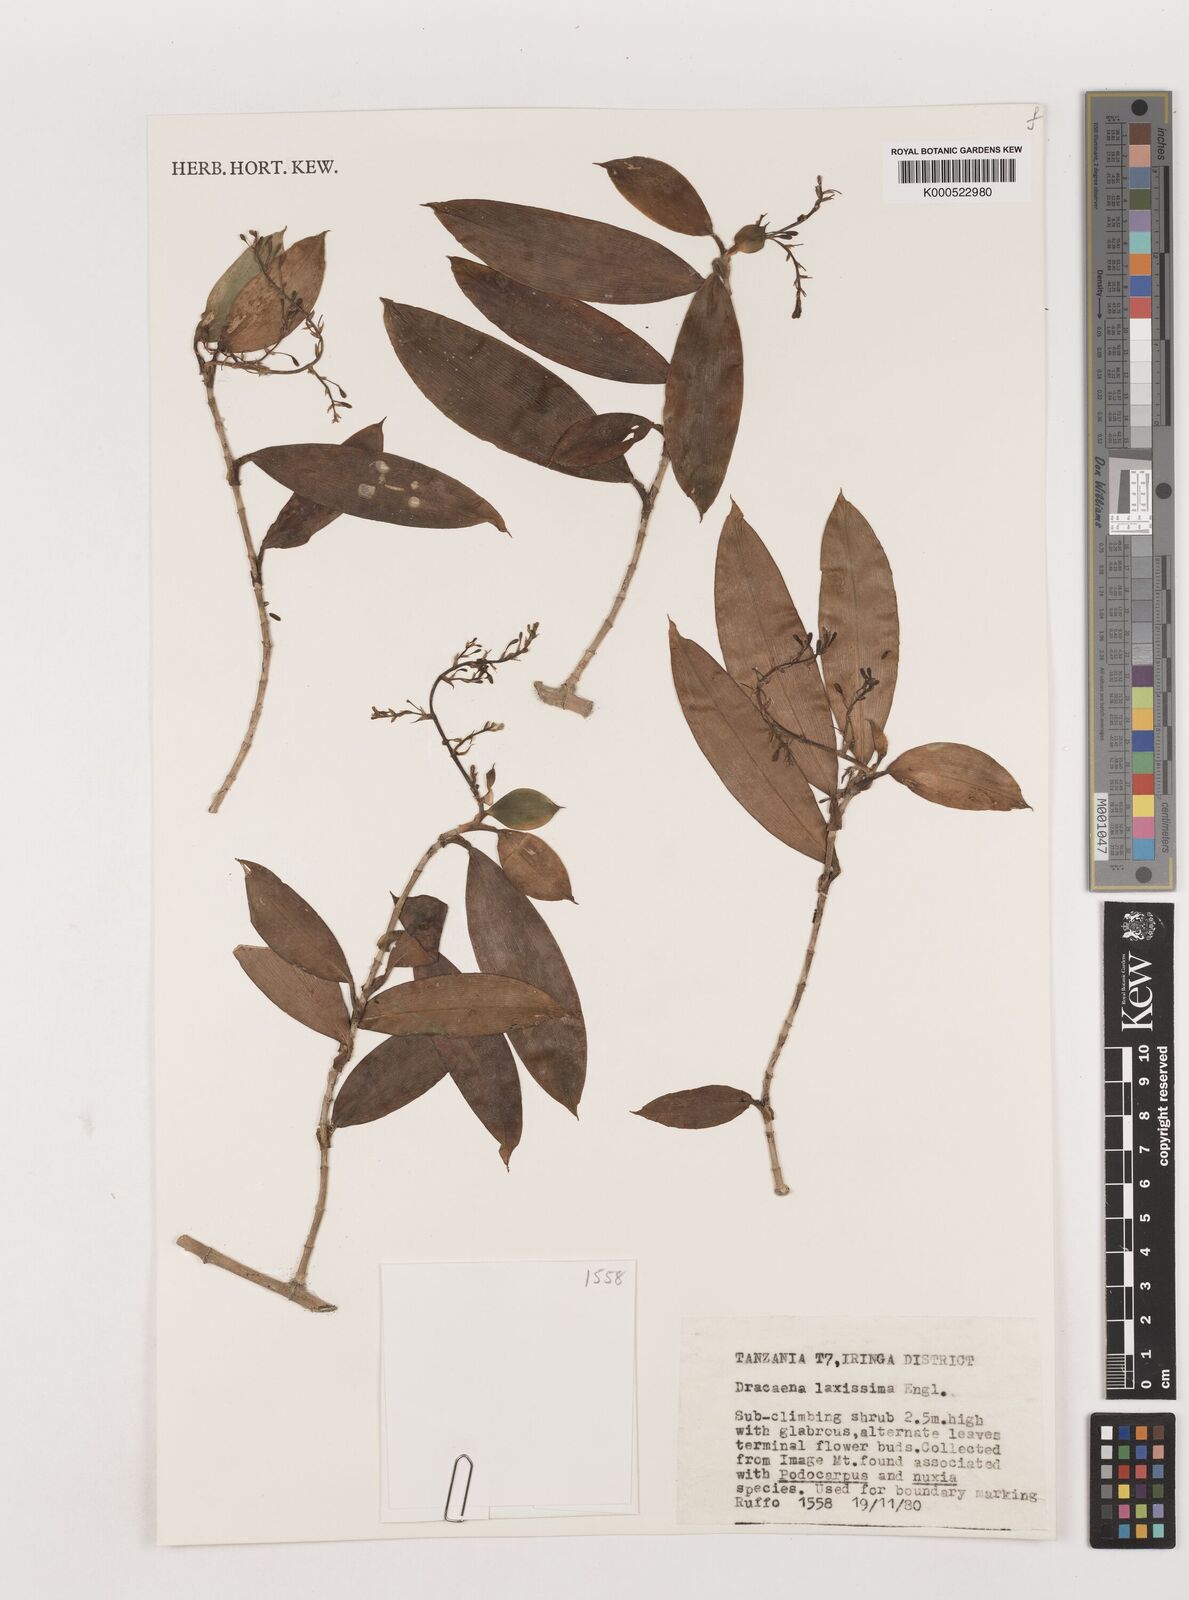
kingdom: Plantae
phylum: Tracheophyta
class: Liliopsida
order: Asparagales
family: Asparagaceae
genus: Dracaena
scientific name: Dracaena laxissima
